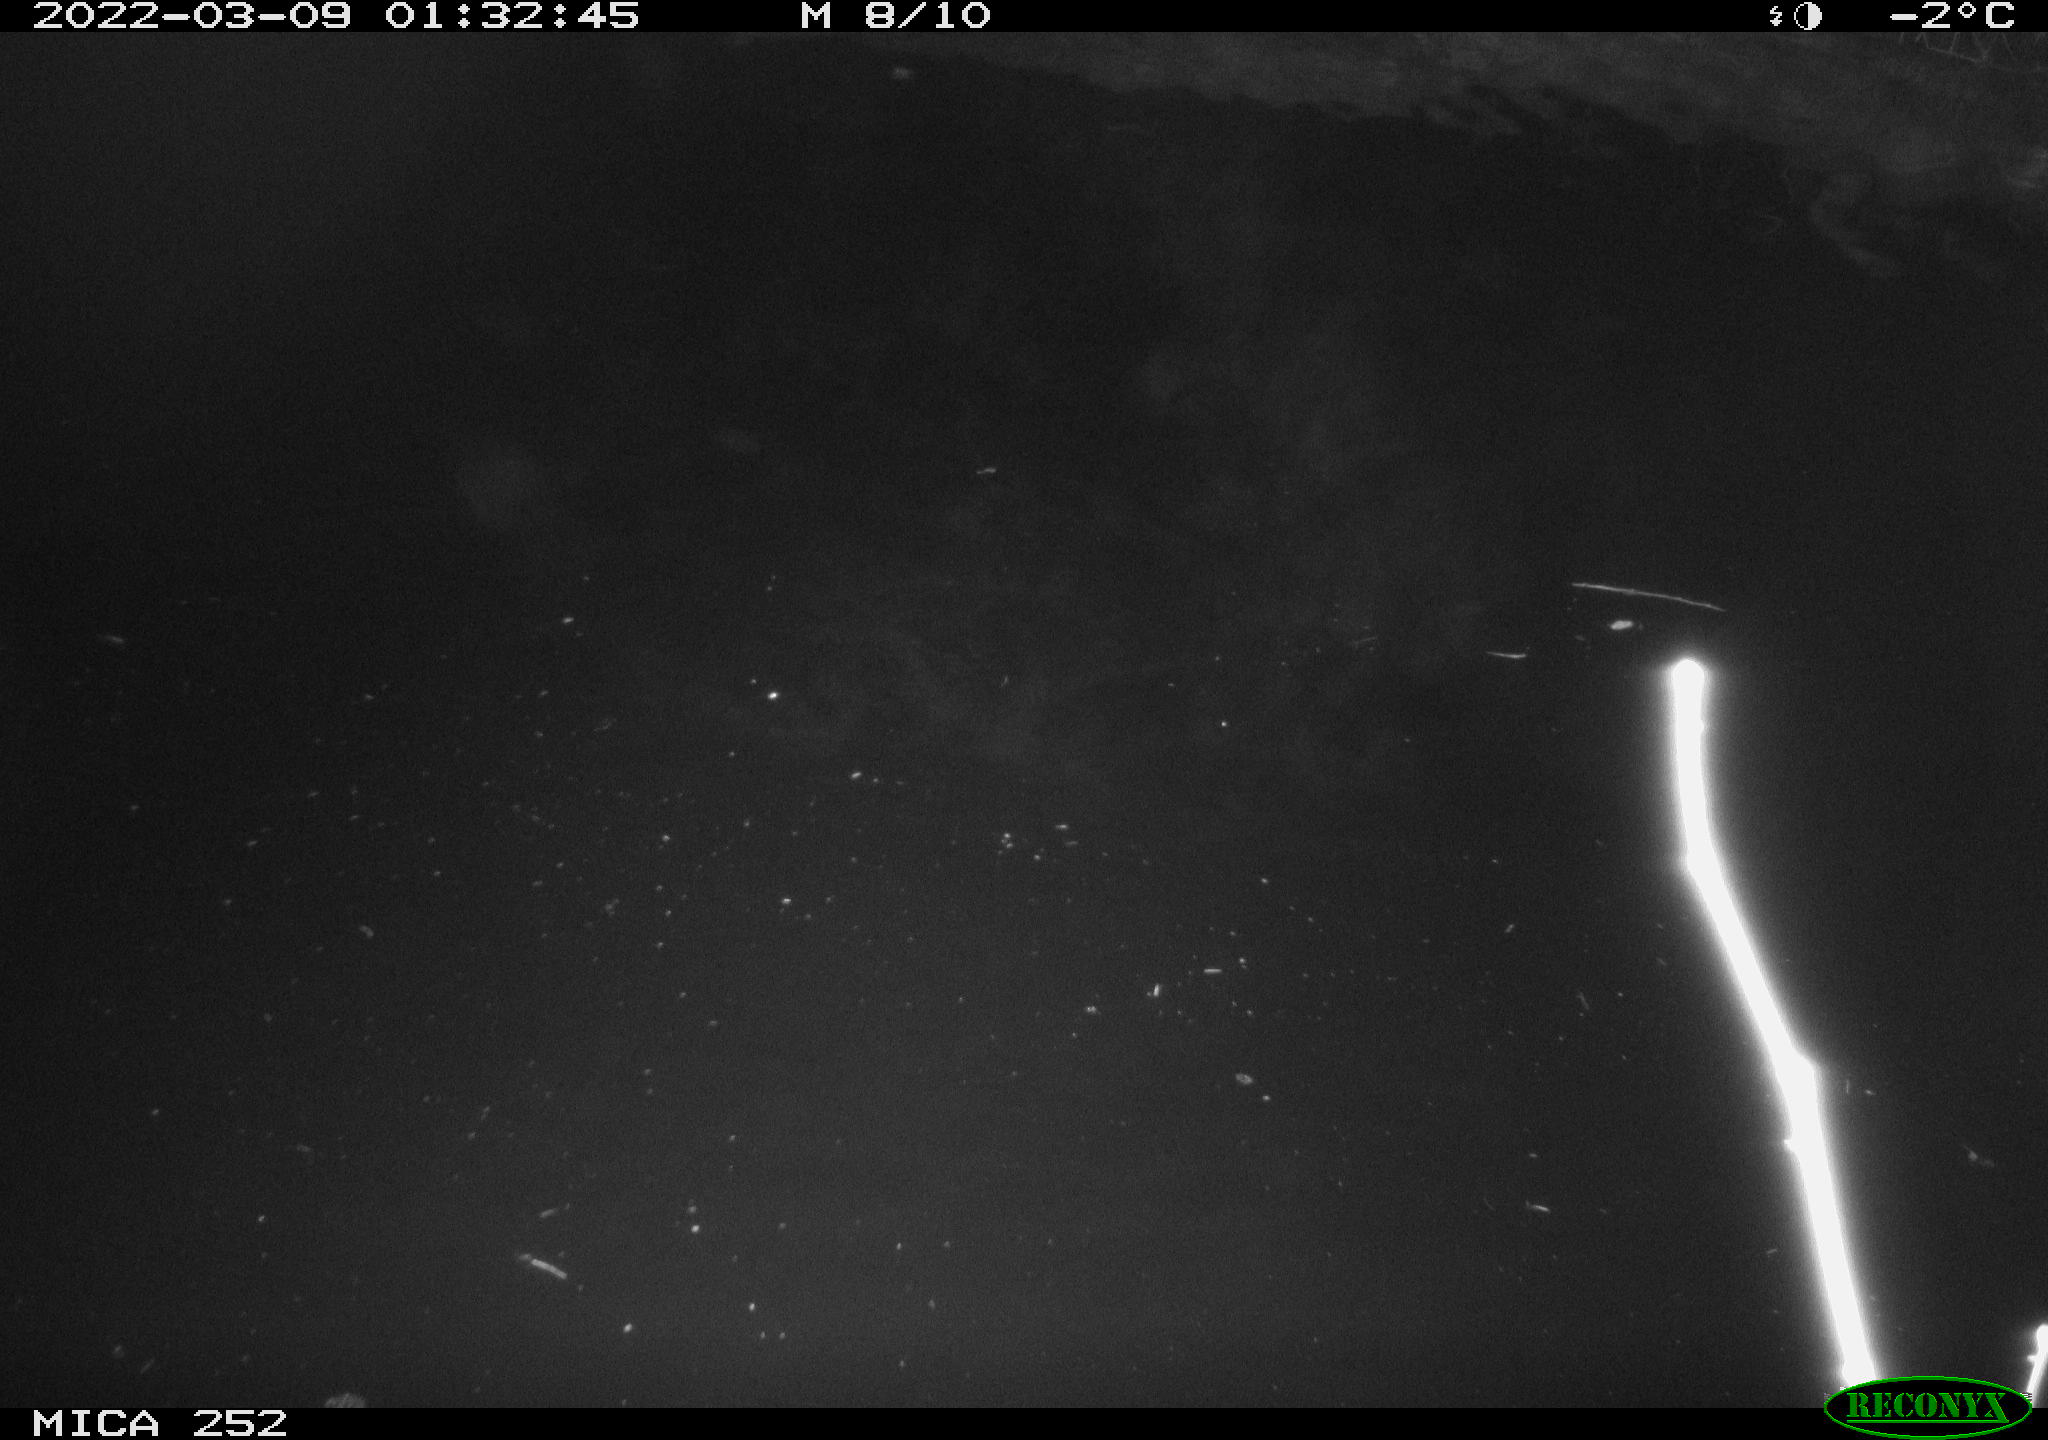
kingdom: Animalia
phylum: Chordata
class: Mammalia
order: Rodentia
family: Castoridae
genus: Castor
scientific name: Castor fiber
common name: Eurasian beaver
